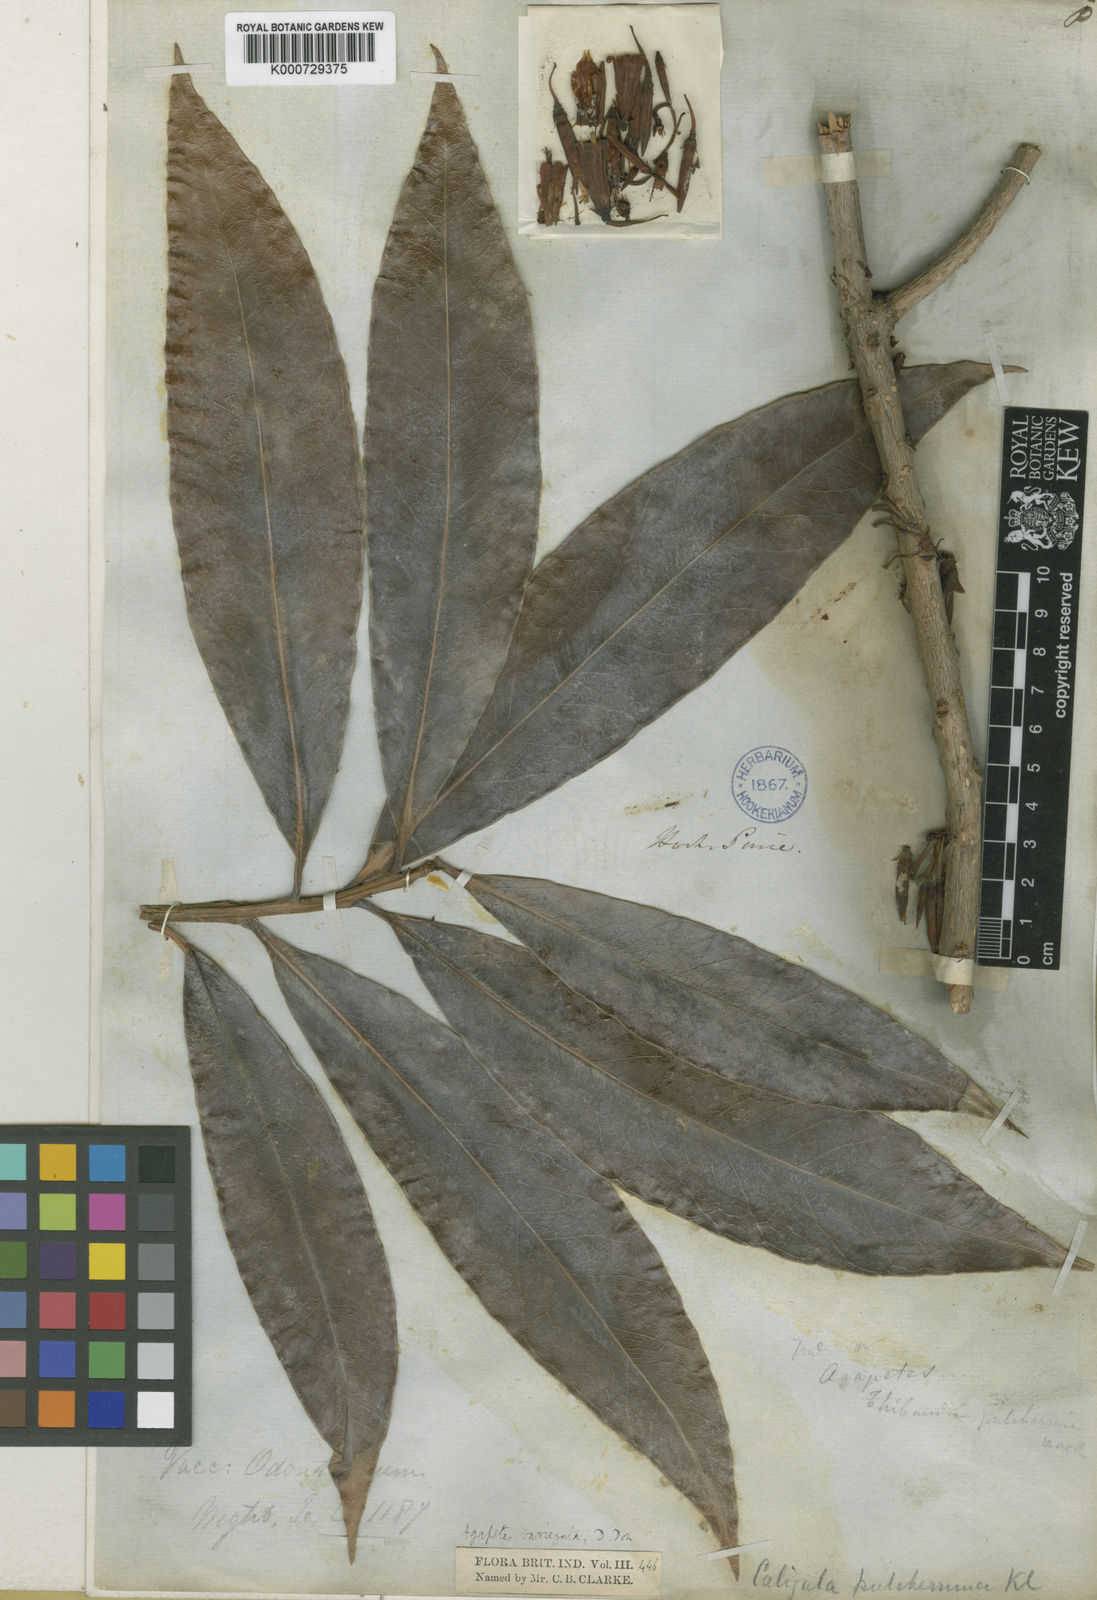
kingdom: Plantae
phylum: Tracheophyta
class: Magnoliopsida
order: Ericales
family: Ericaceae
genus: Agapetes
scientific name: Agapetes odontocera
